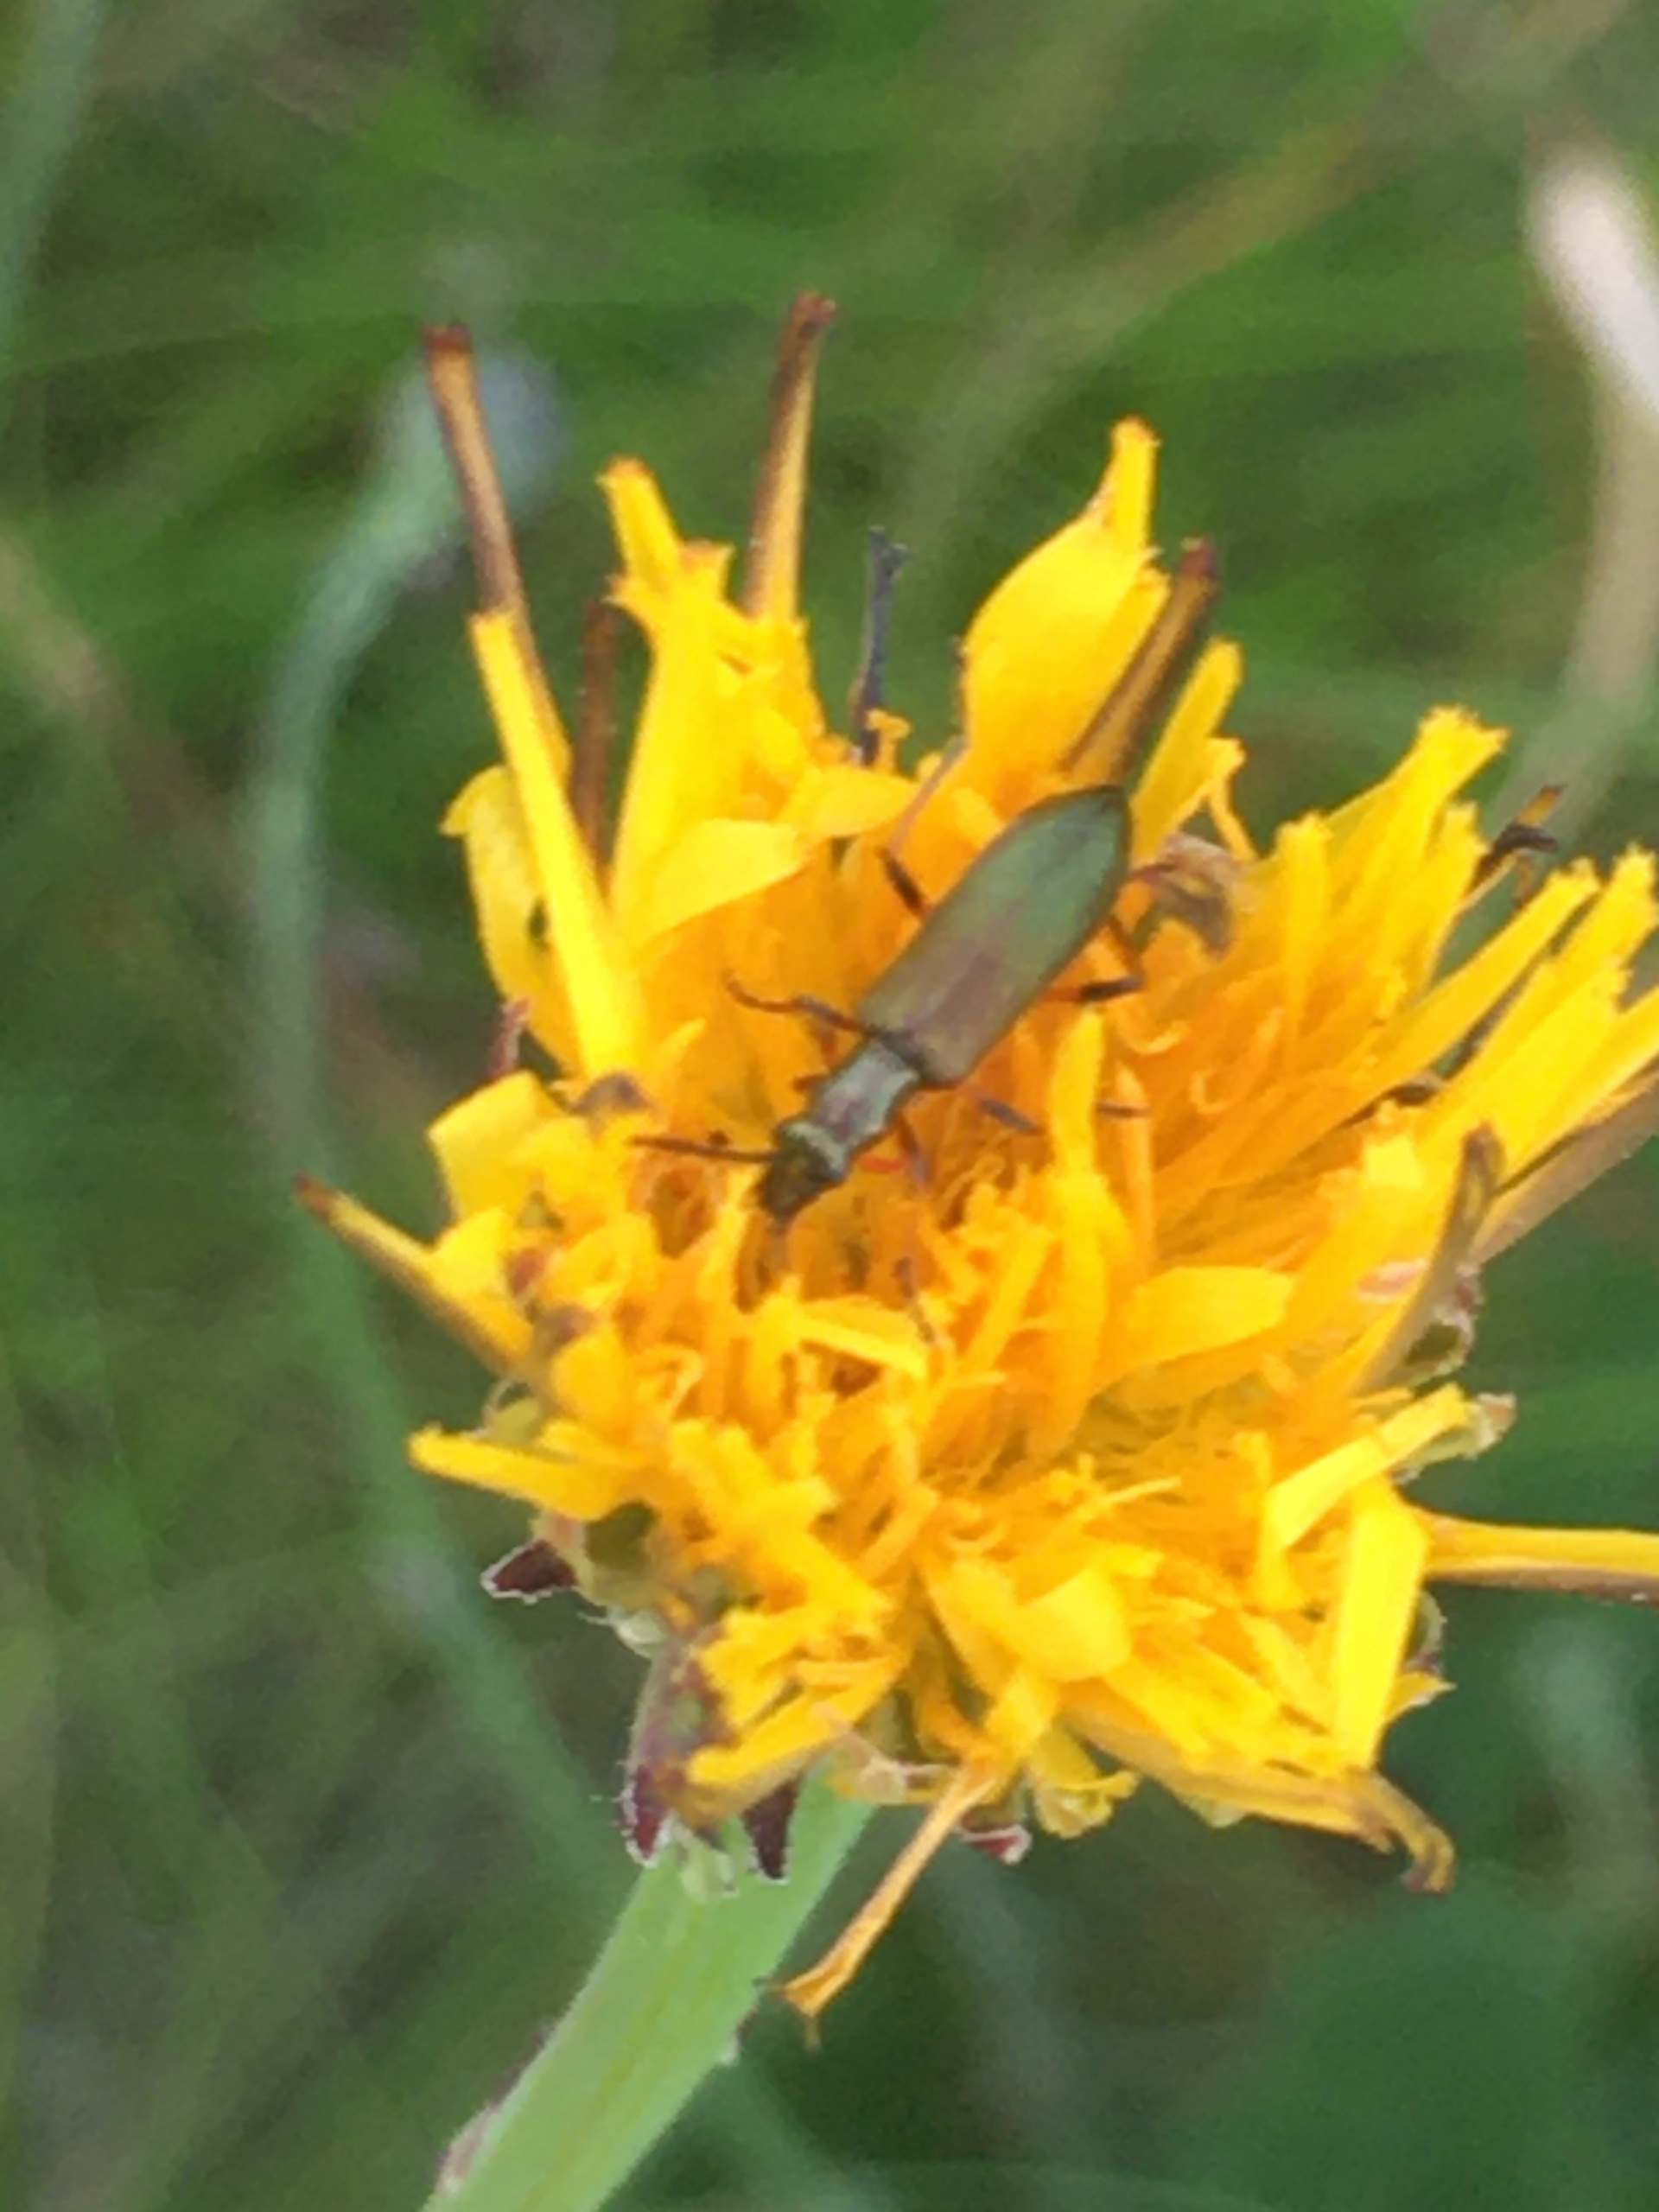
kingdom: Animalia
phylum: Arthropoda
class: Insecta
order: Coleoptera
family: Oedemeridae
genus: Chrysanthia
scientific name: Chrysanthia geniculata
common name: Grøn solbille
